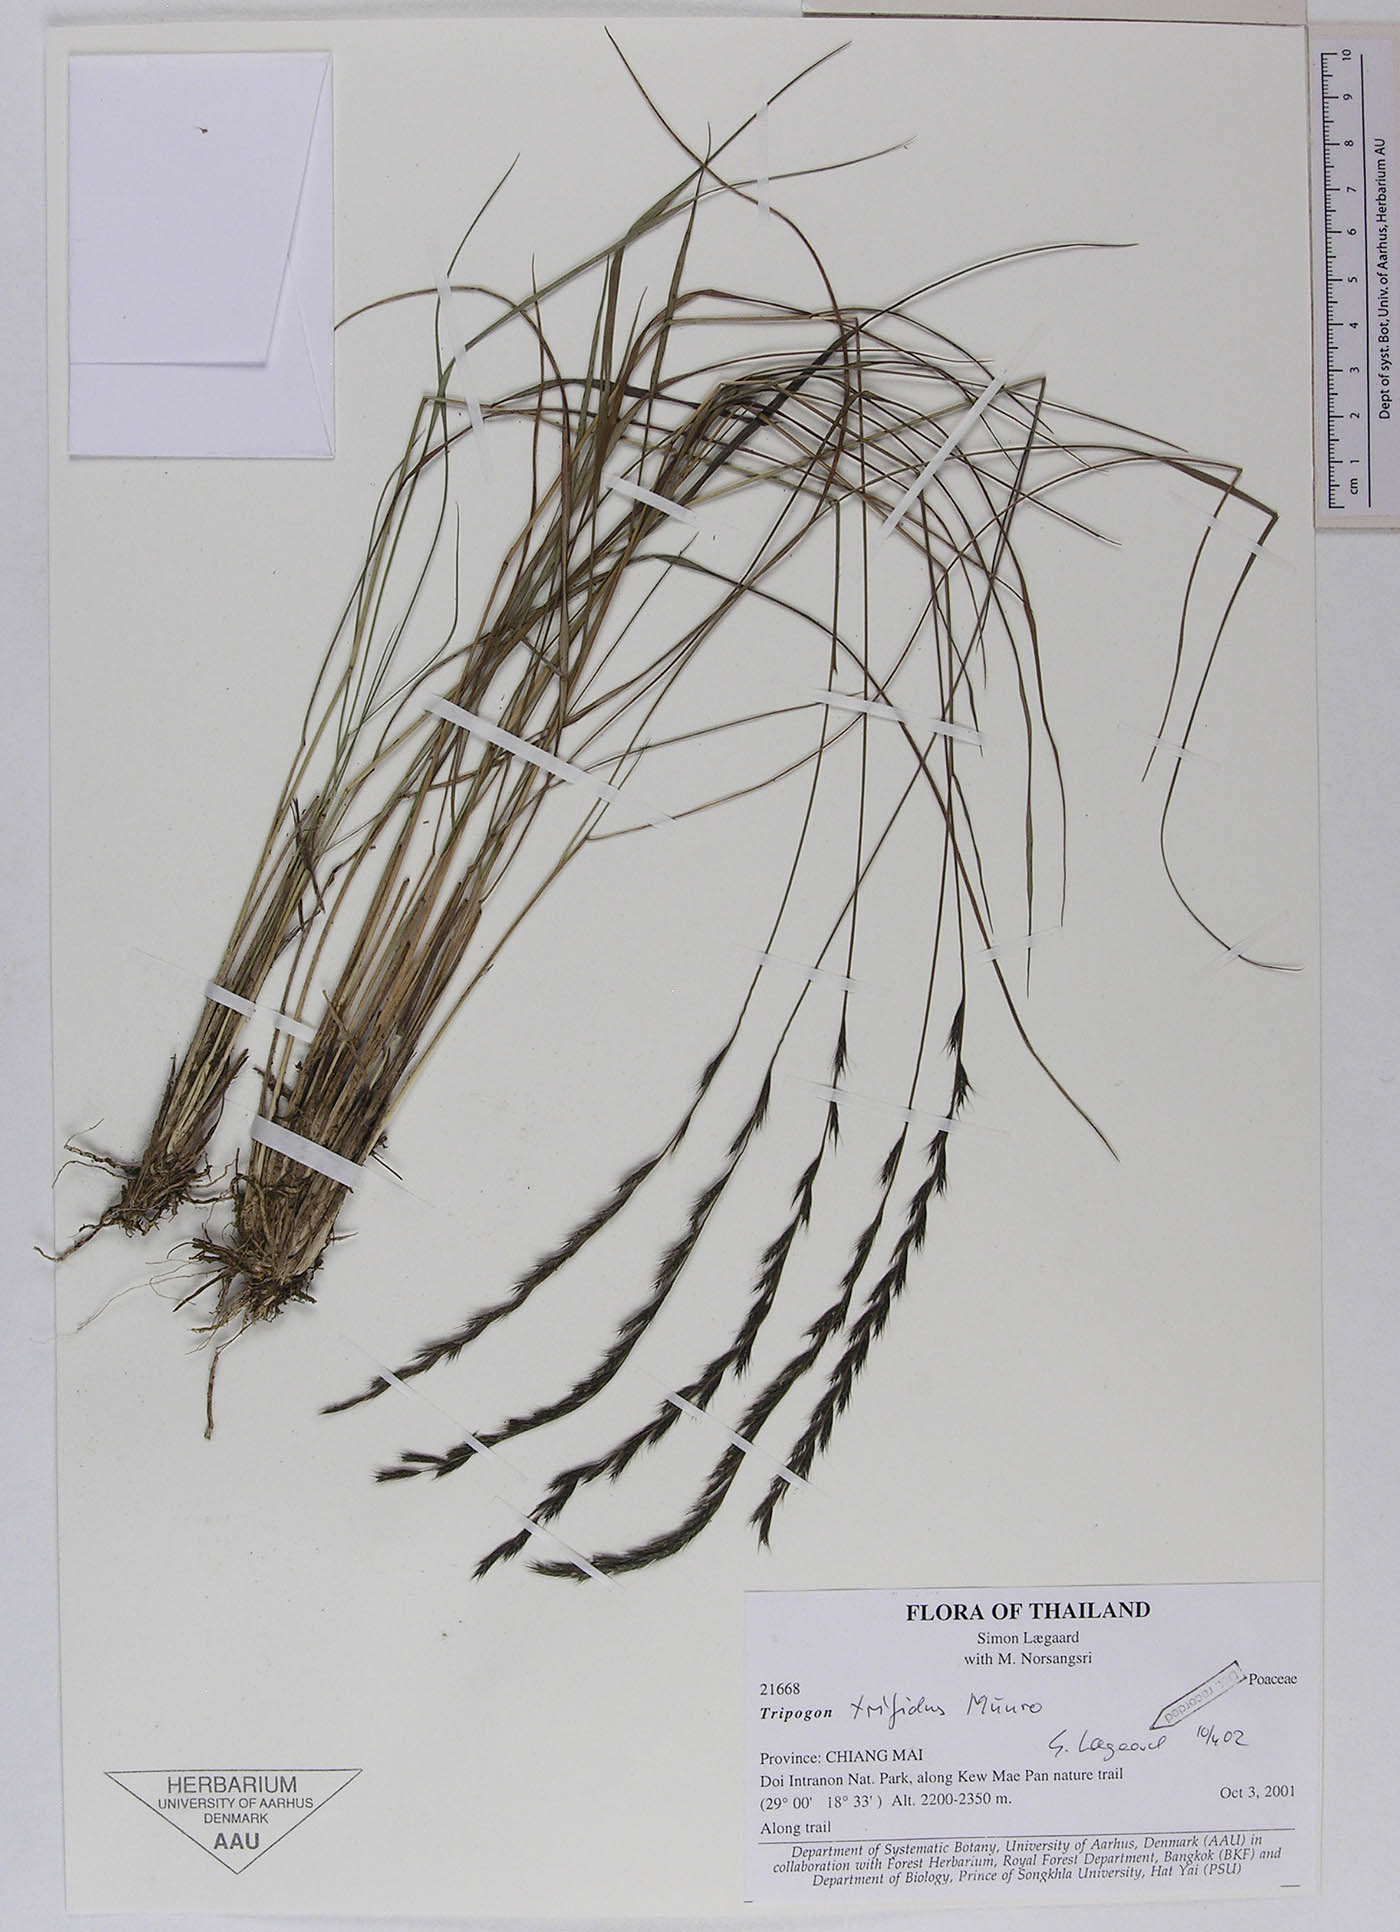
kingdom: Plantae
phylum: Tracheophyta
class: Liliopsida
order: Poales
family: Poaceae
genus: Tripogon
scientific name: Tripogon trifidus
